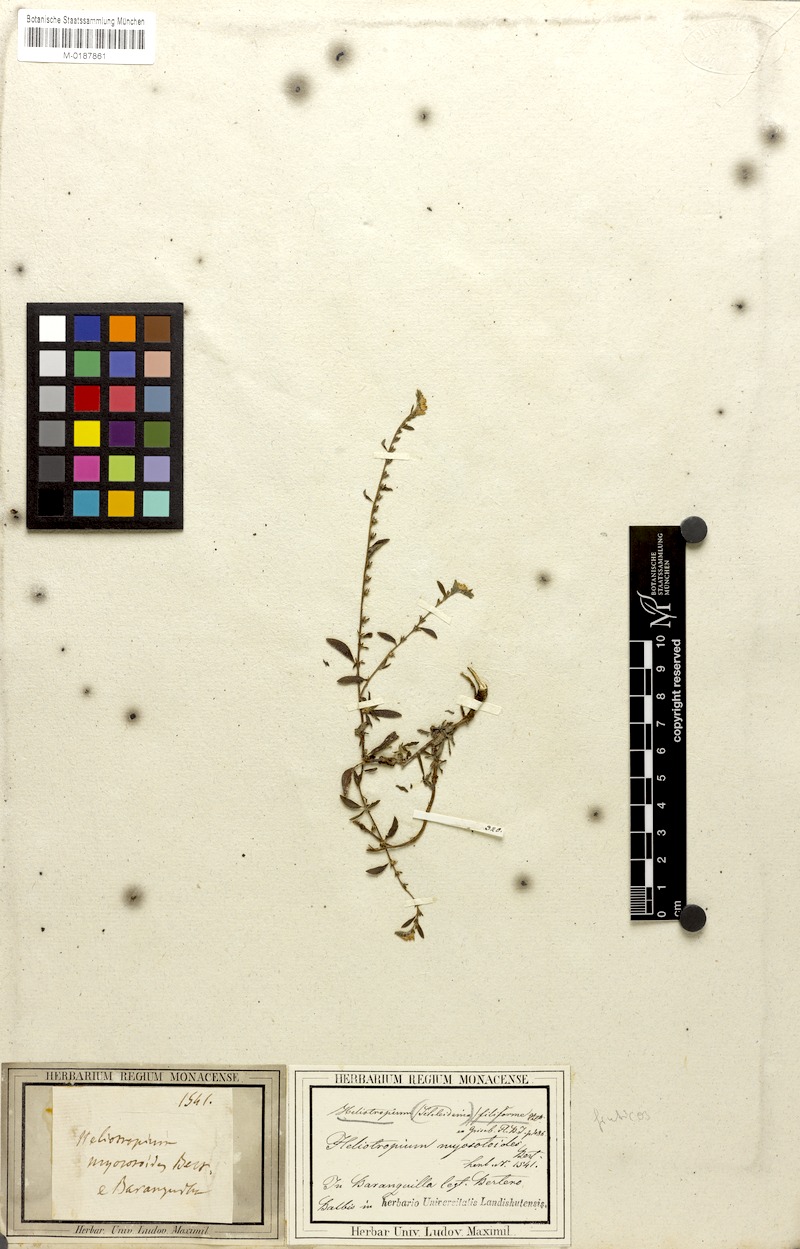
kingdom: Plantae
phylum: Tracheophyta
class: Magnoliopsida
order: Boraginales
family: Heliotropiaceae
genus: Euploca
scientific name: Euploca fruticosa
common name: Key west heliotrope
